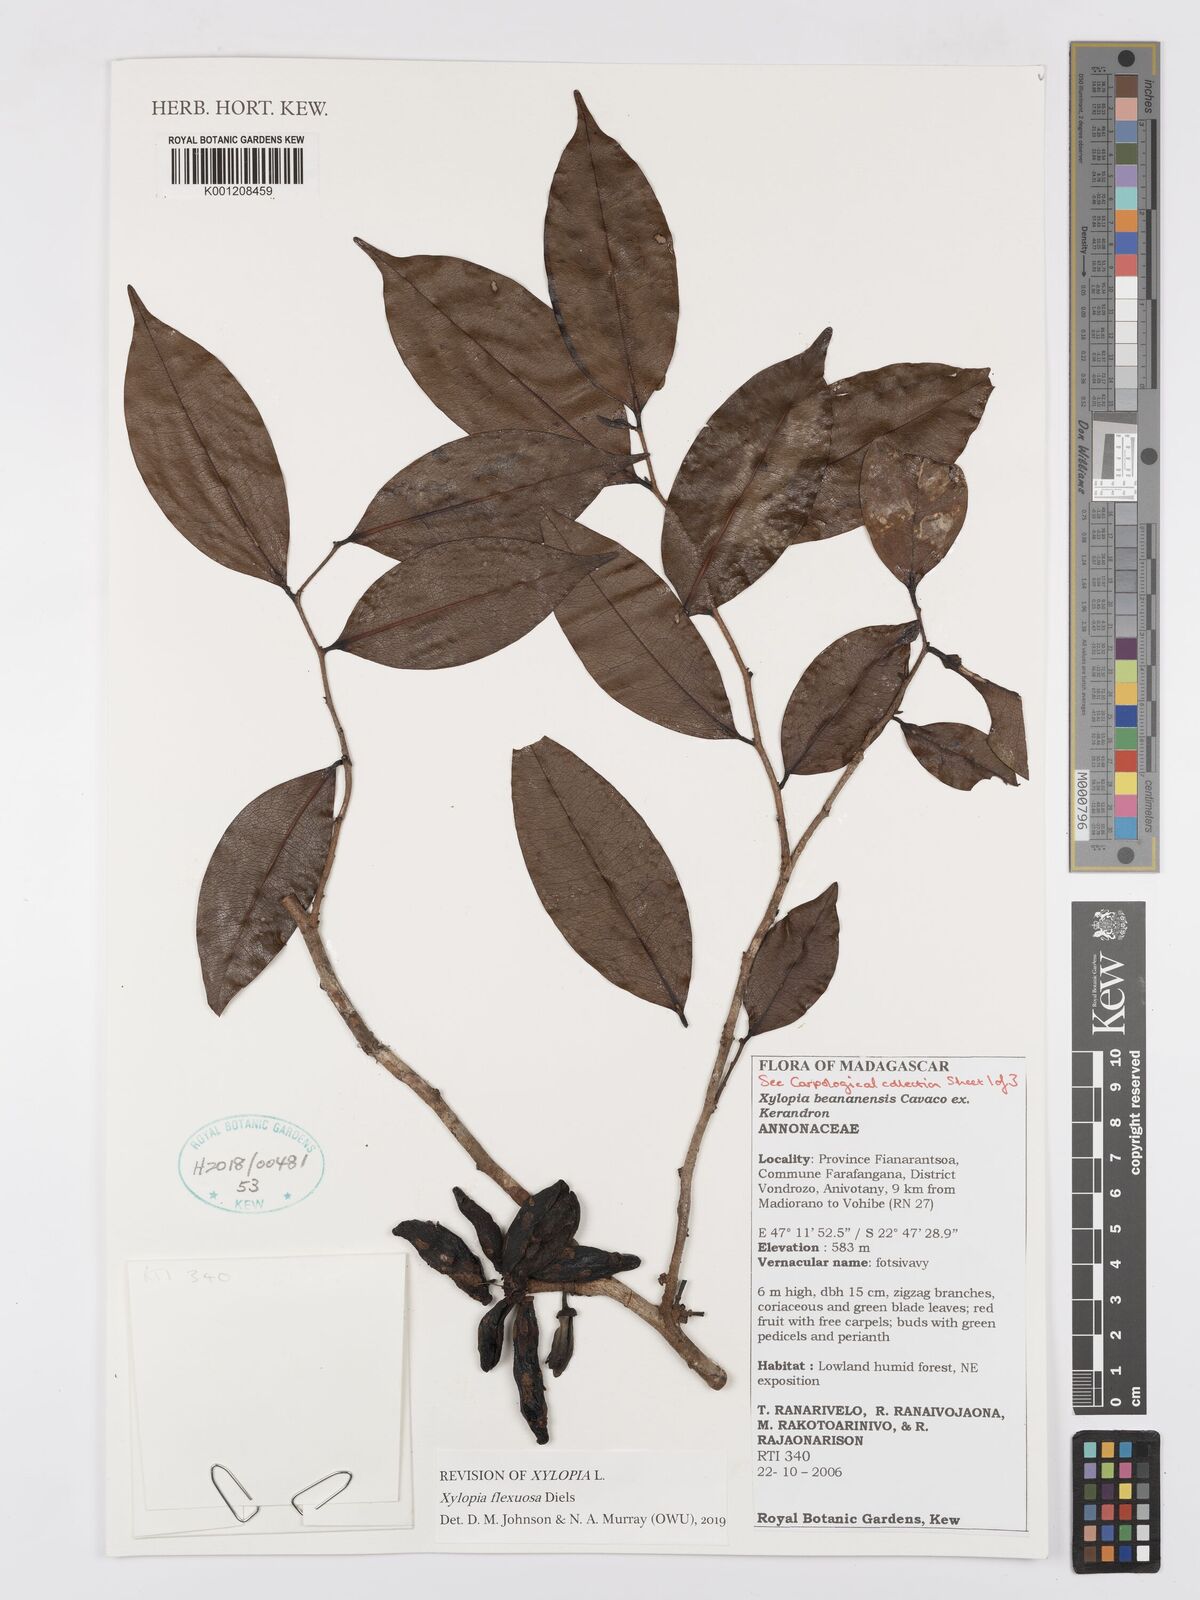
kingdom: Plantae
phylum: Tracheophyta
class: Magnoliopsida
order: Magnoliales
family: Annonaceae
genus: Xylopia
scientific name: Xylopia beananensis
